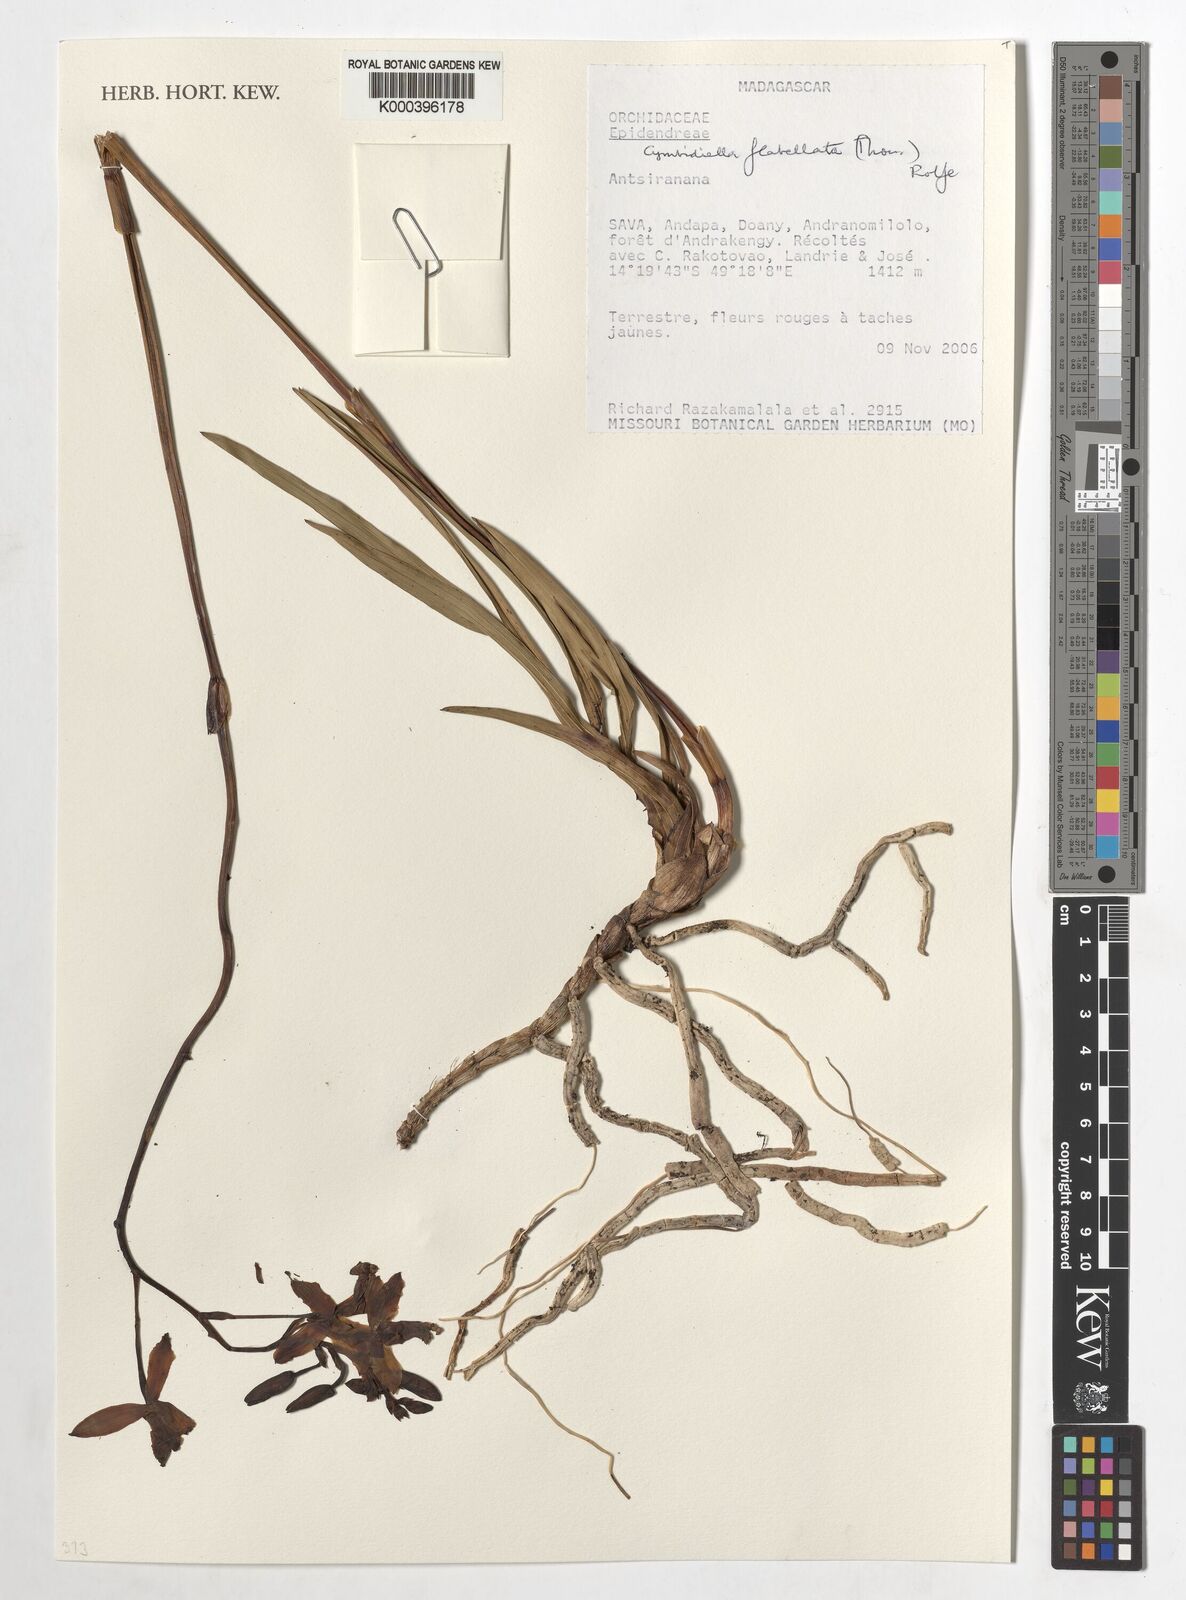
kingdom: Plantae
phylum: Tracheophyta
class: Liliopsida
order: Asparagales
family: Orchidaceae
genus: Eulophia
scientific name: Eulophia flabellata
